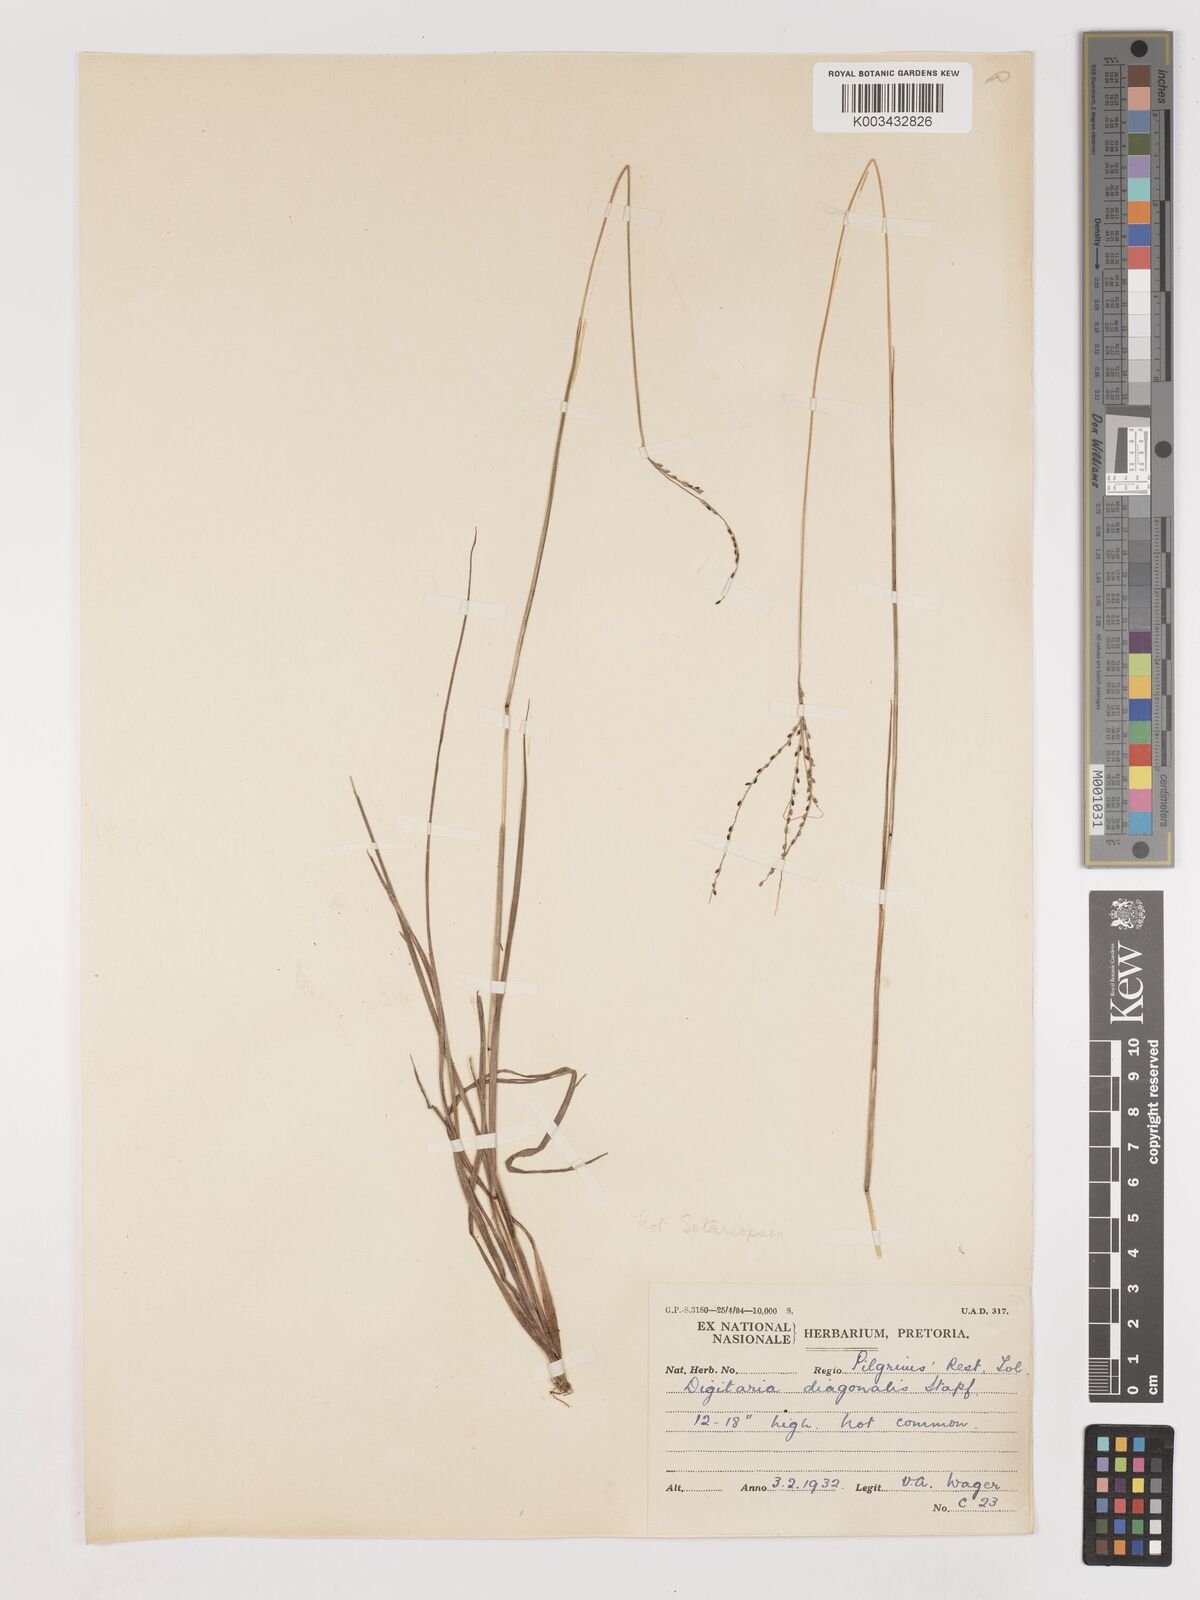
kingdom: Plantae
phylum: Tracheophyta
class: Liliopsida
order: Poales
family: Poaceae
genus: Digitaria
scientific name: Digitaria maitlandii
